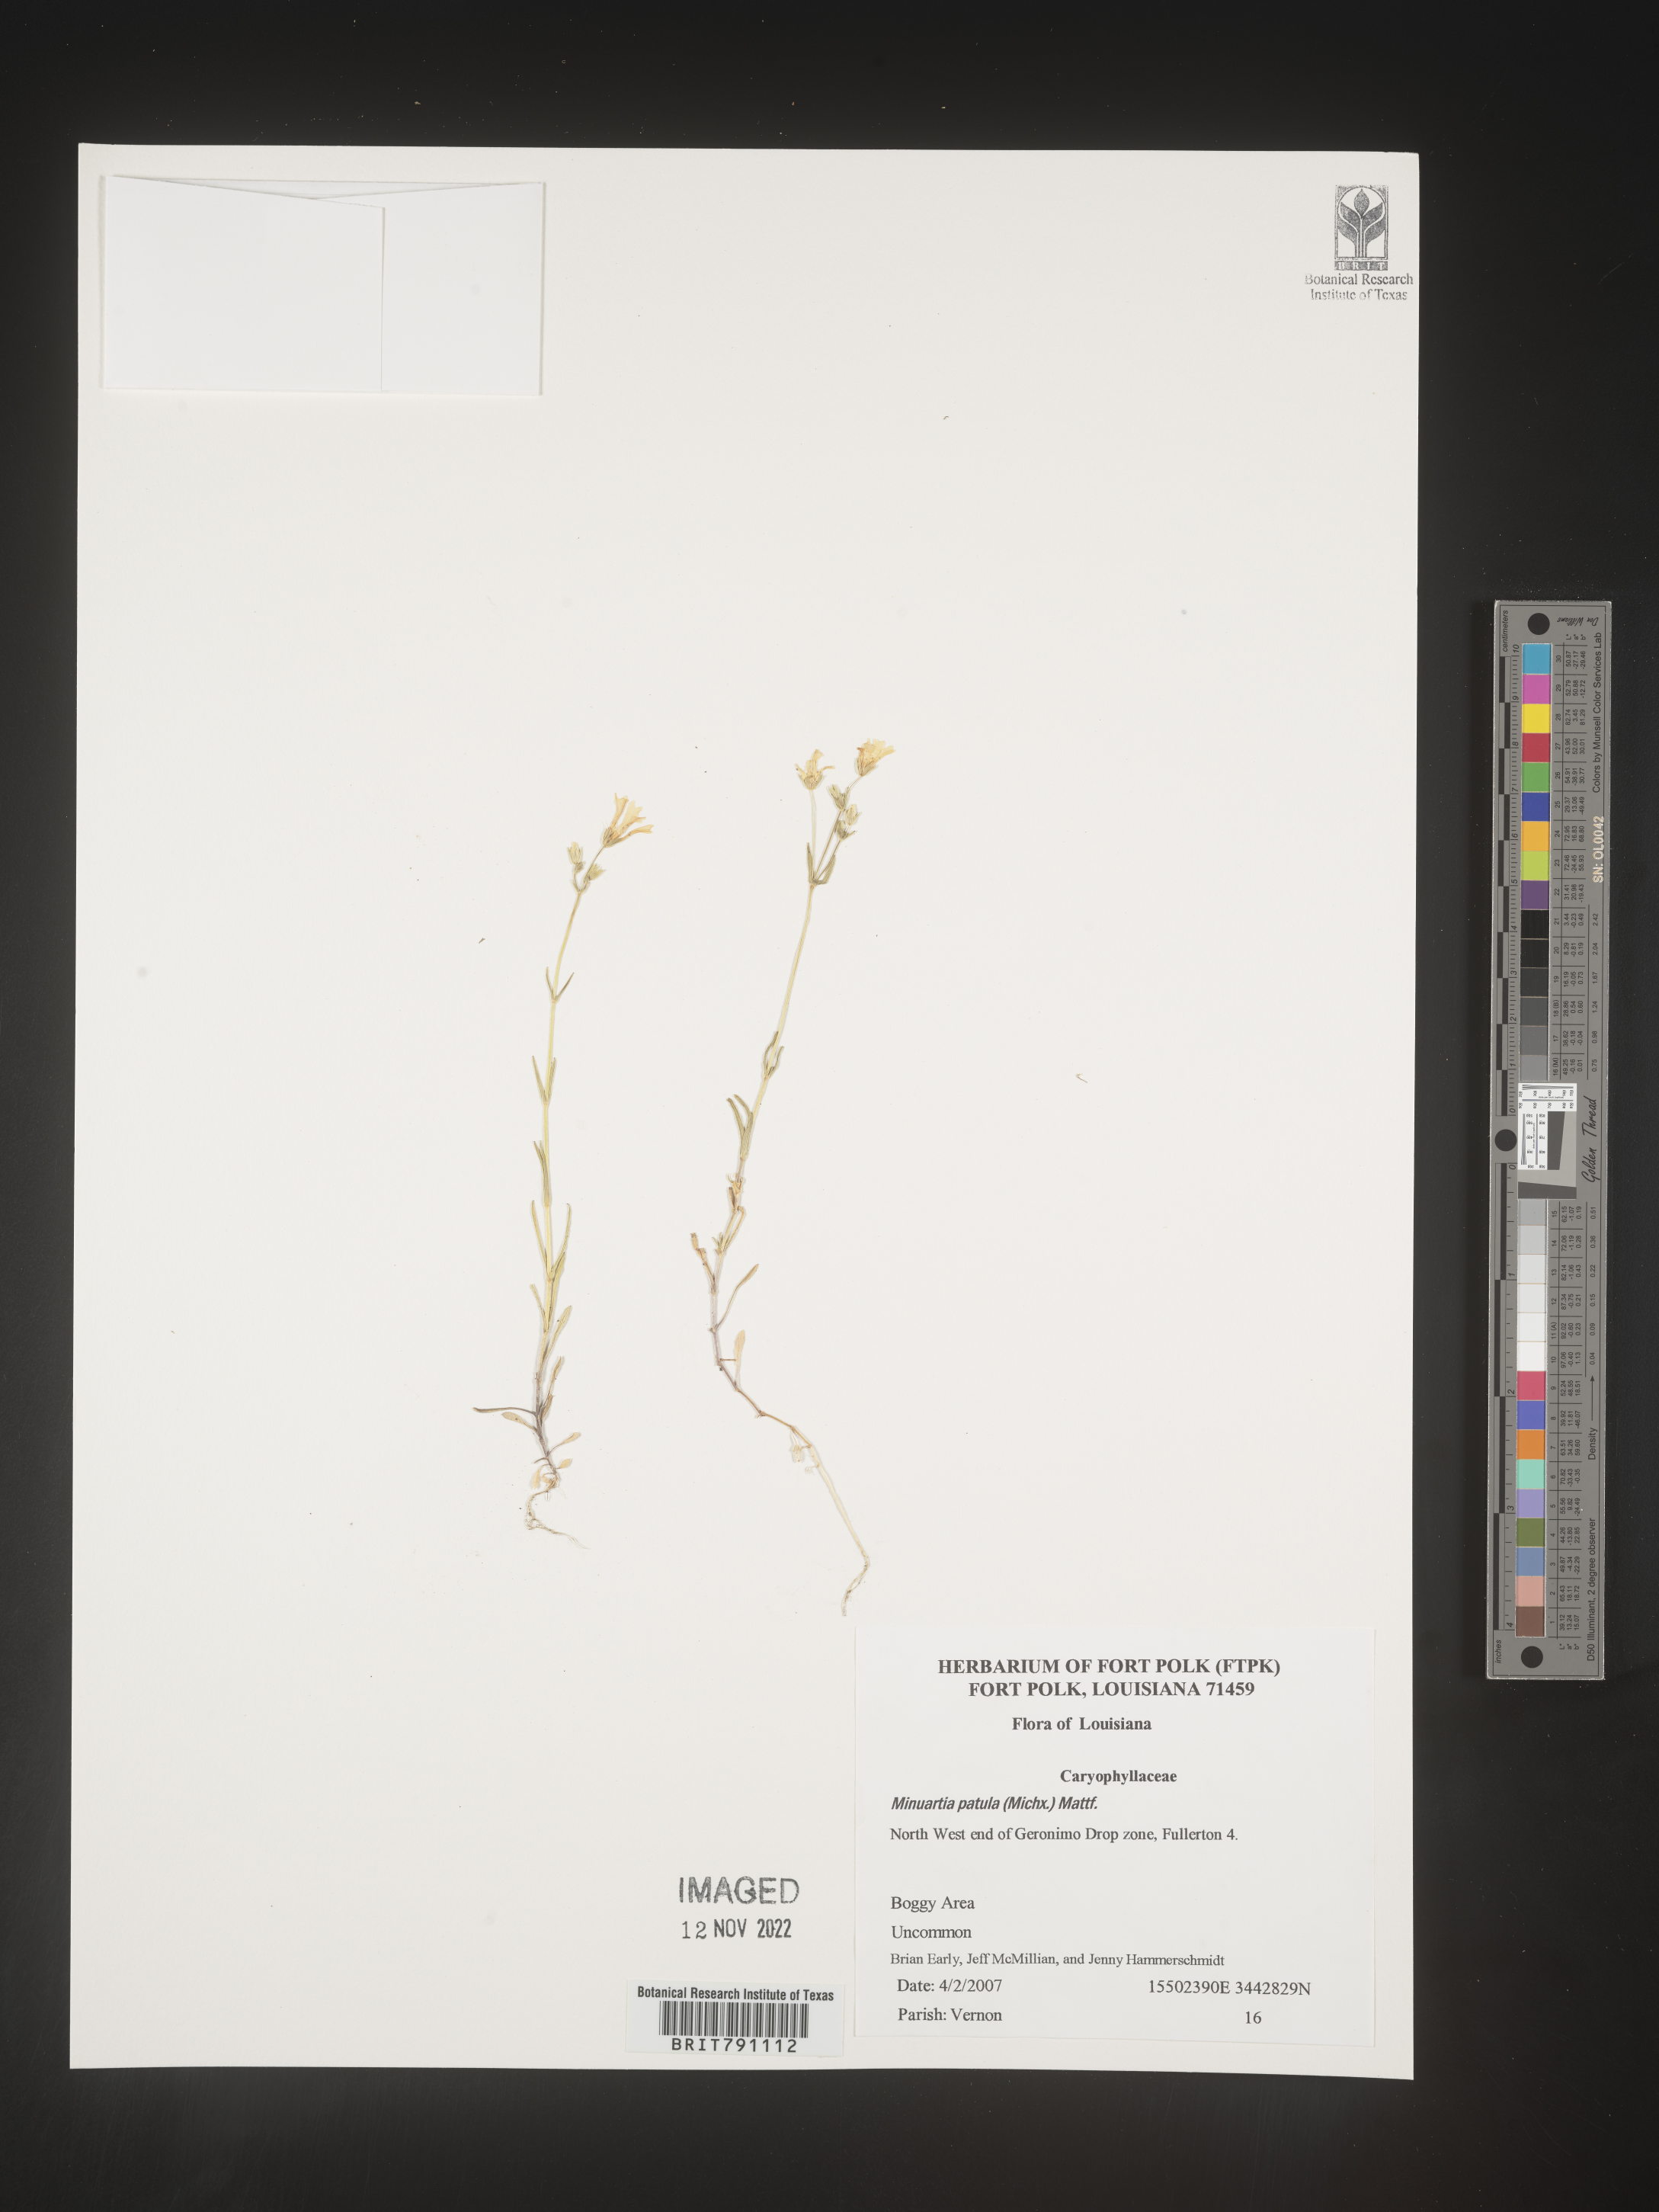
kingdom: Plantae
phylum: Tracheophyta
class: Magnoliopsida
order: Caryophyllales
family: Caryophyllaceae
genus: Mononeuria
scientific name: Mononeuria patula
